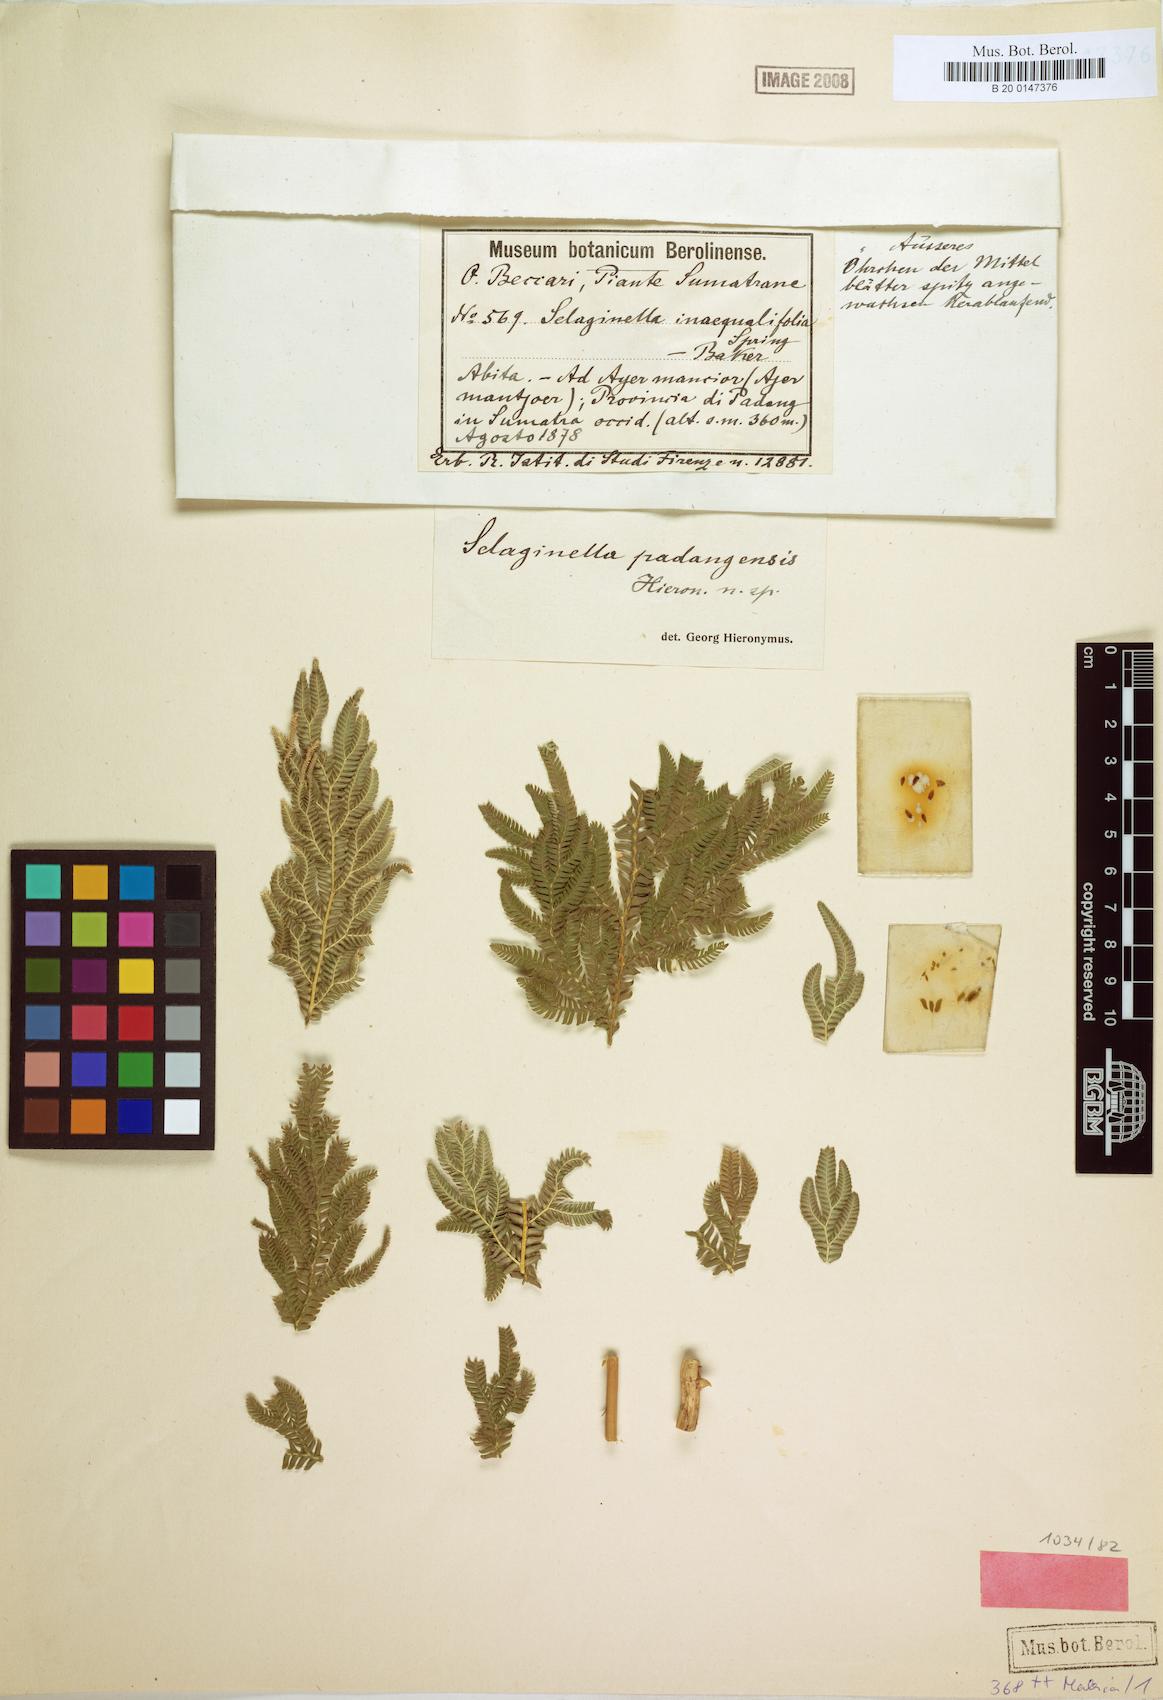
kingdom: Plantae
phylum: Tracheophyta
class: Lycopodiopsida
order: Selaginellales
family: Selaginellaceae
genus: Selaginella
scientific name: Selaginella padangensis
